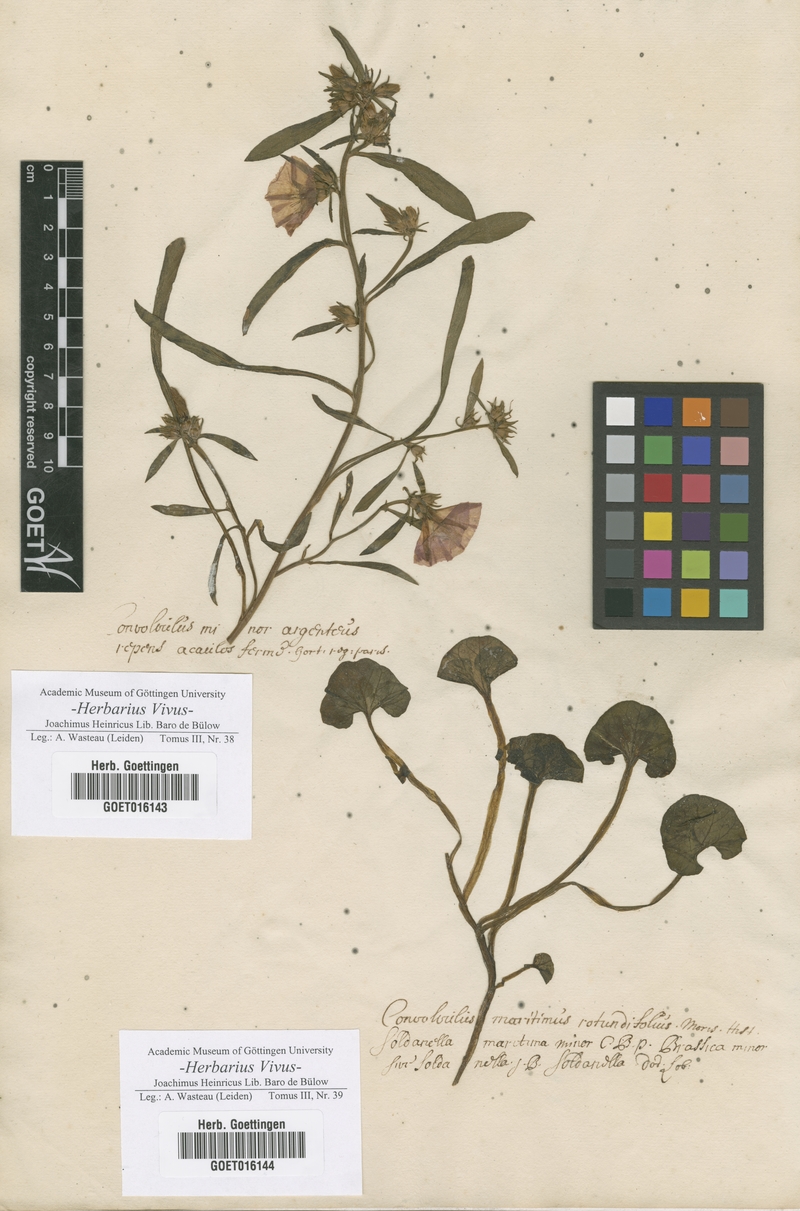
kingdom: Plantae
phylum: Tracheophyta
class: Magnoliopsida
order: Solanales
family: Convolvulaceae
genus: Convolvulus
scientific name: Convolvulus
